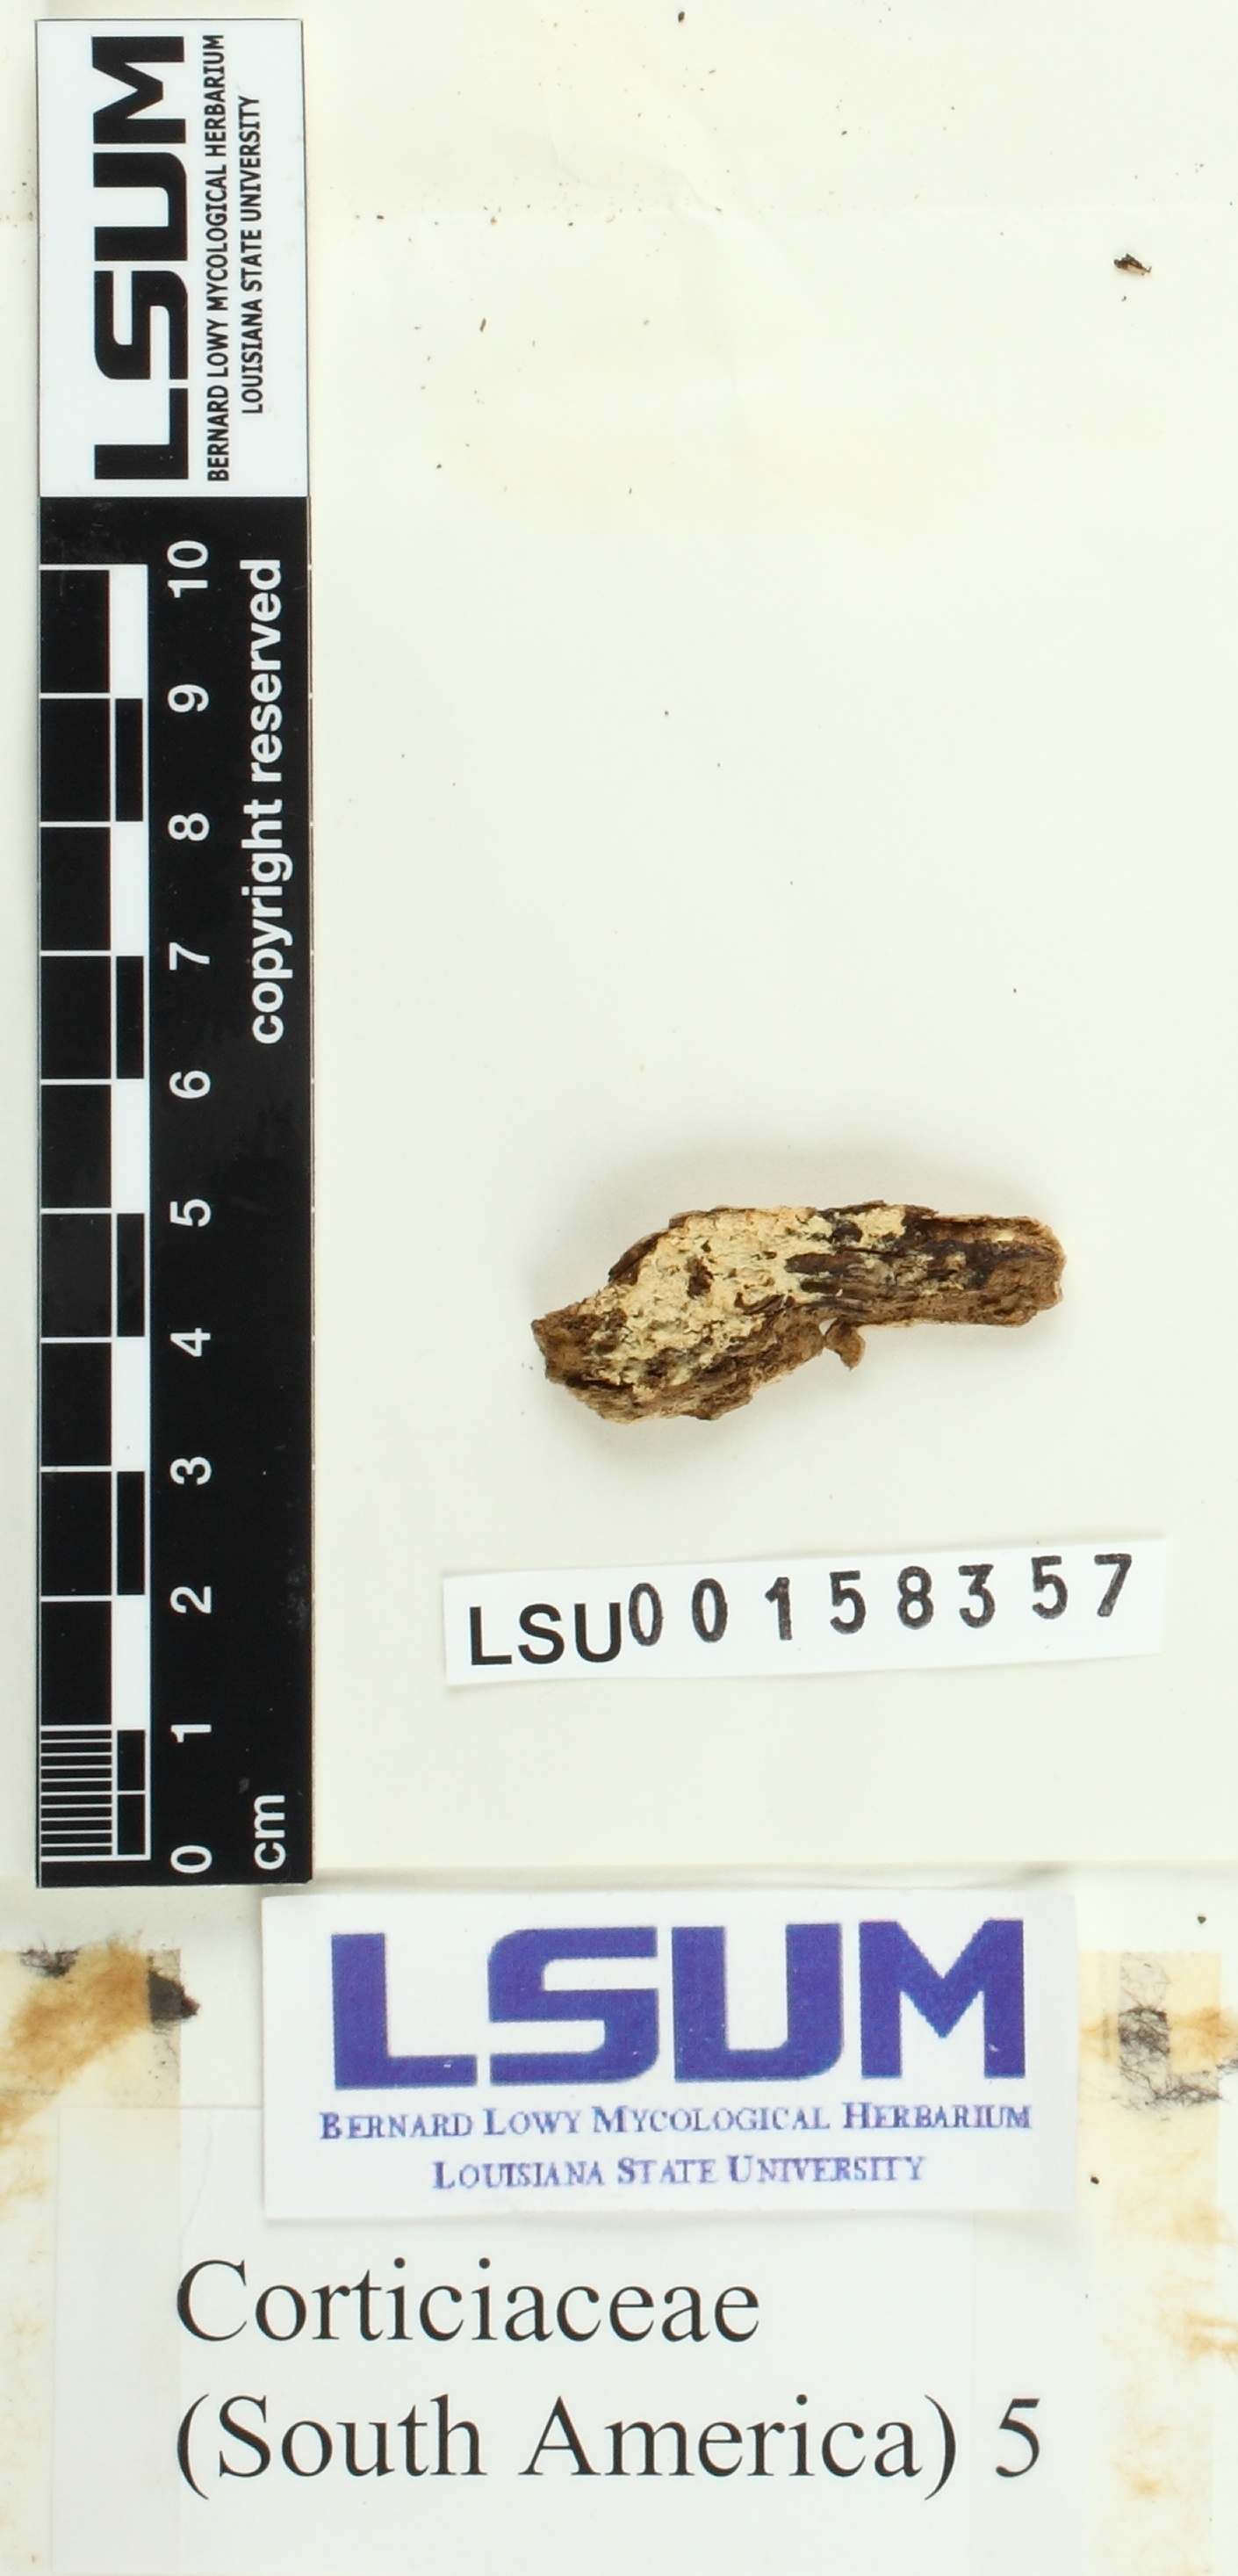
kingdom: Fungi
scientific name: Fungi
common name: Fungi
